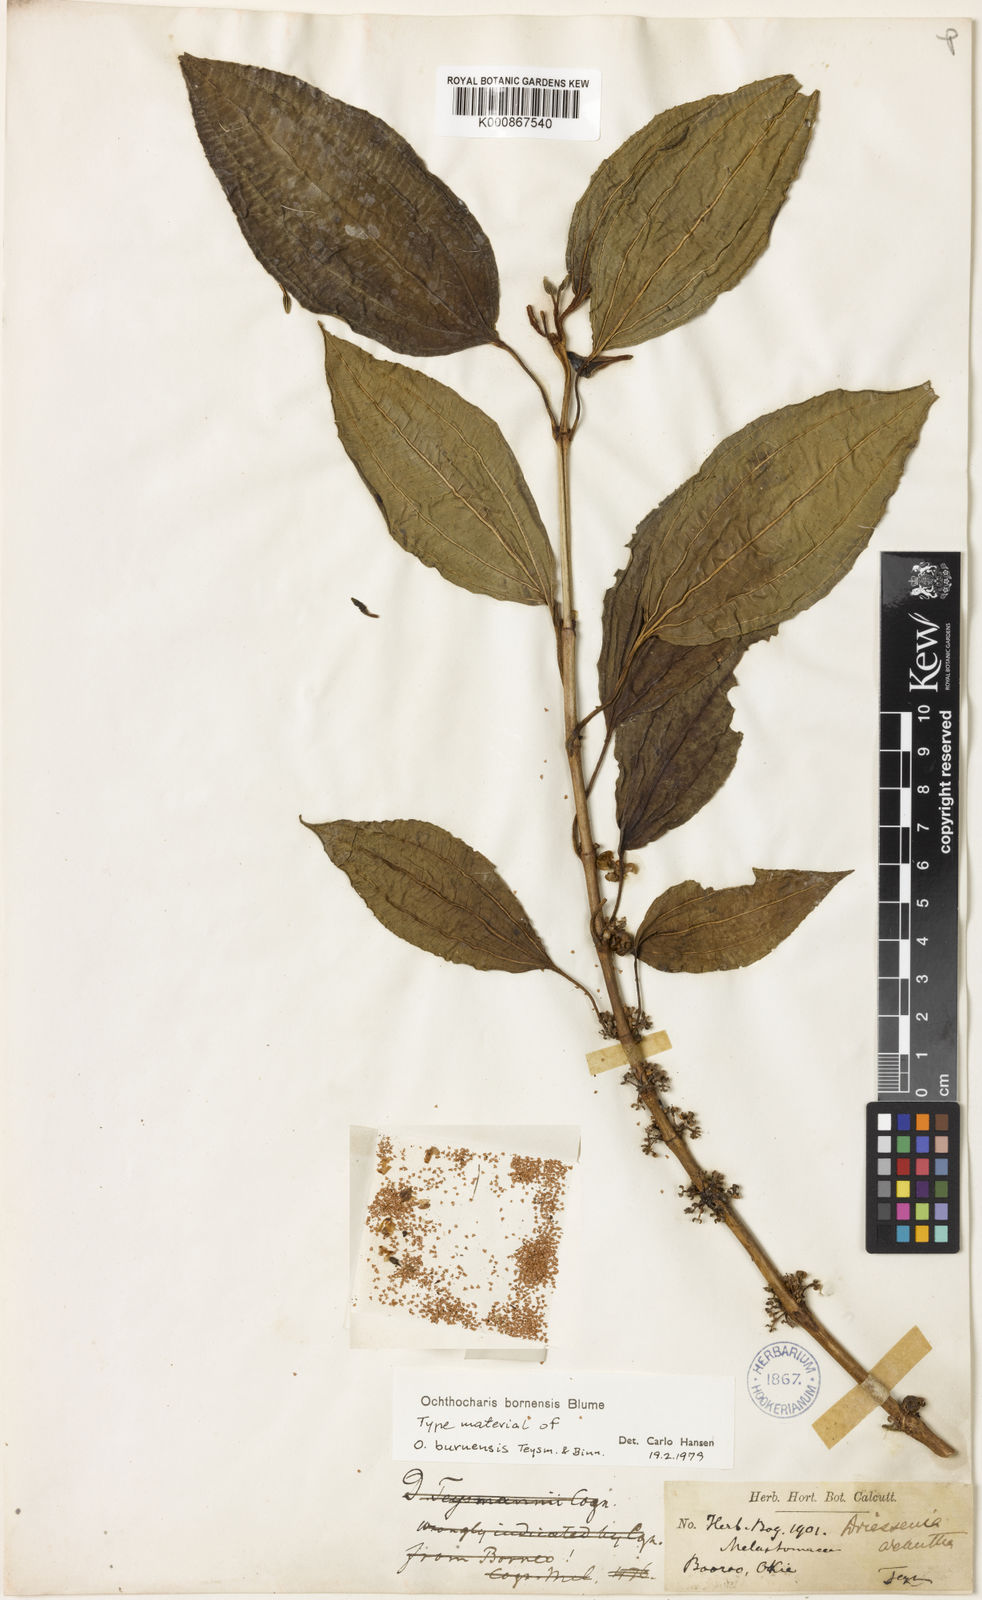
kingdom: Plantae
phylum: Tracheophyta
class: Magnoliopsida
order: Myrtales
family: Melastomataceae
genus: Ochthocharis
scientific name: Ochthocharis bornensis
